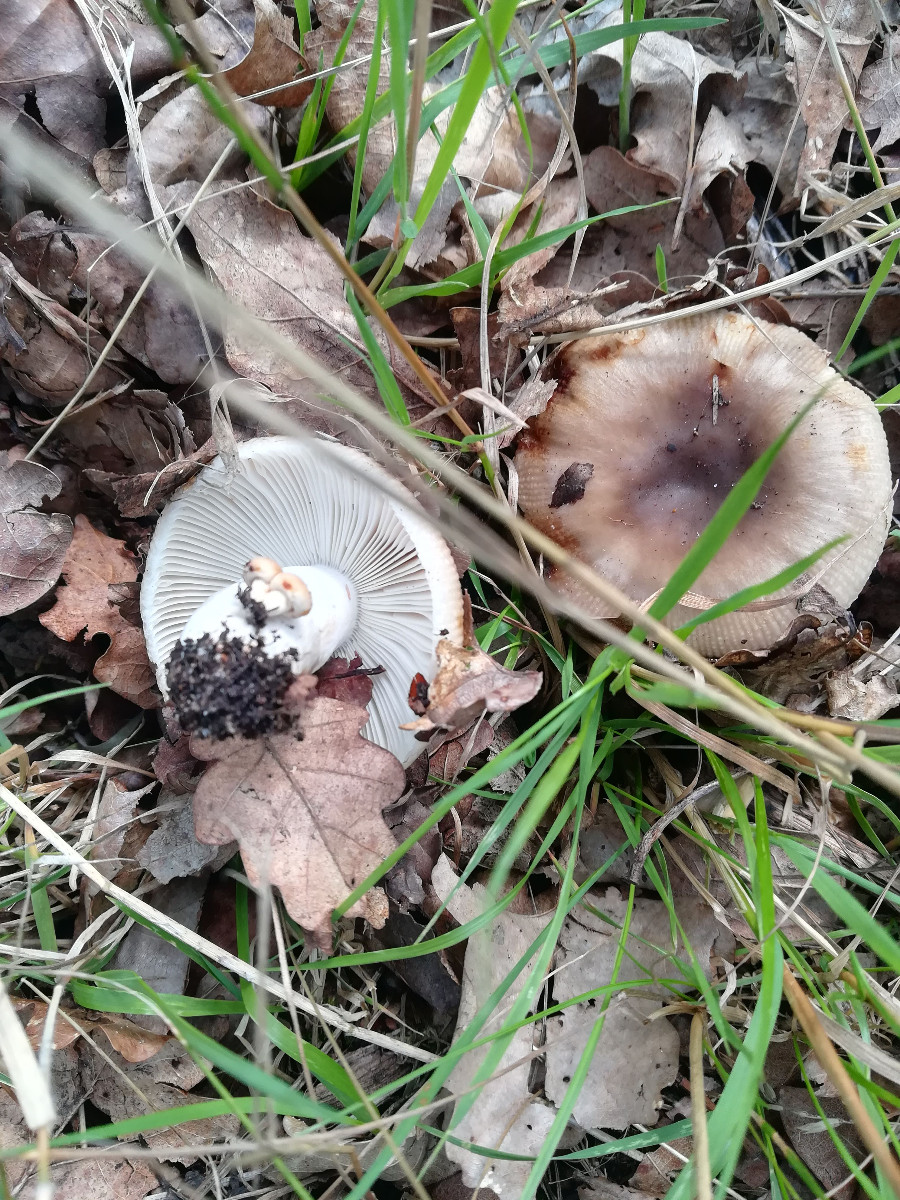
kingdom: Fungi
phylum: Basidiomycota
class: Agaricomycetes
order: Russulales
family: Russulaceae
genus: Russula
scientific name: Russula grata
